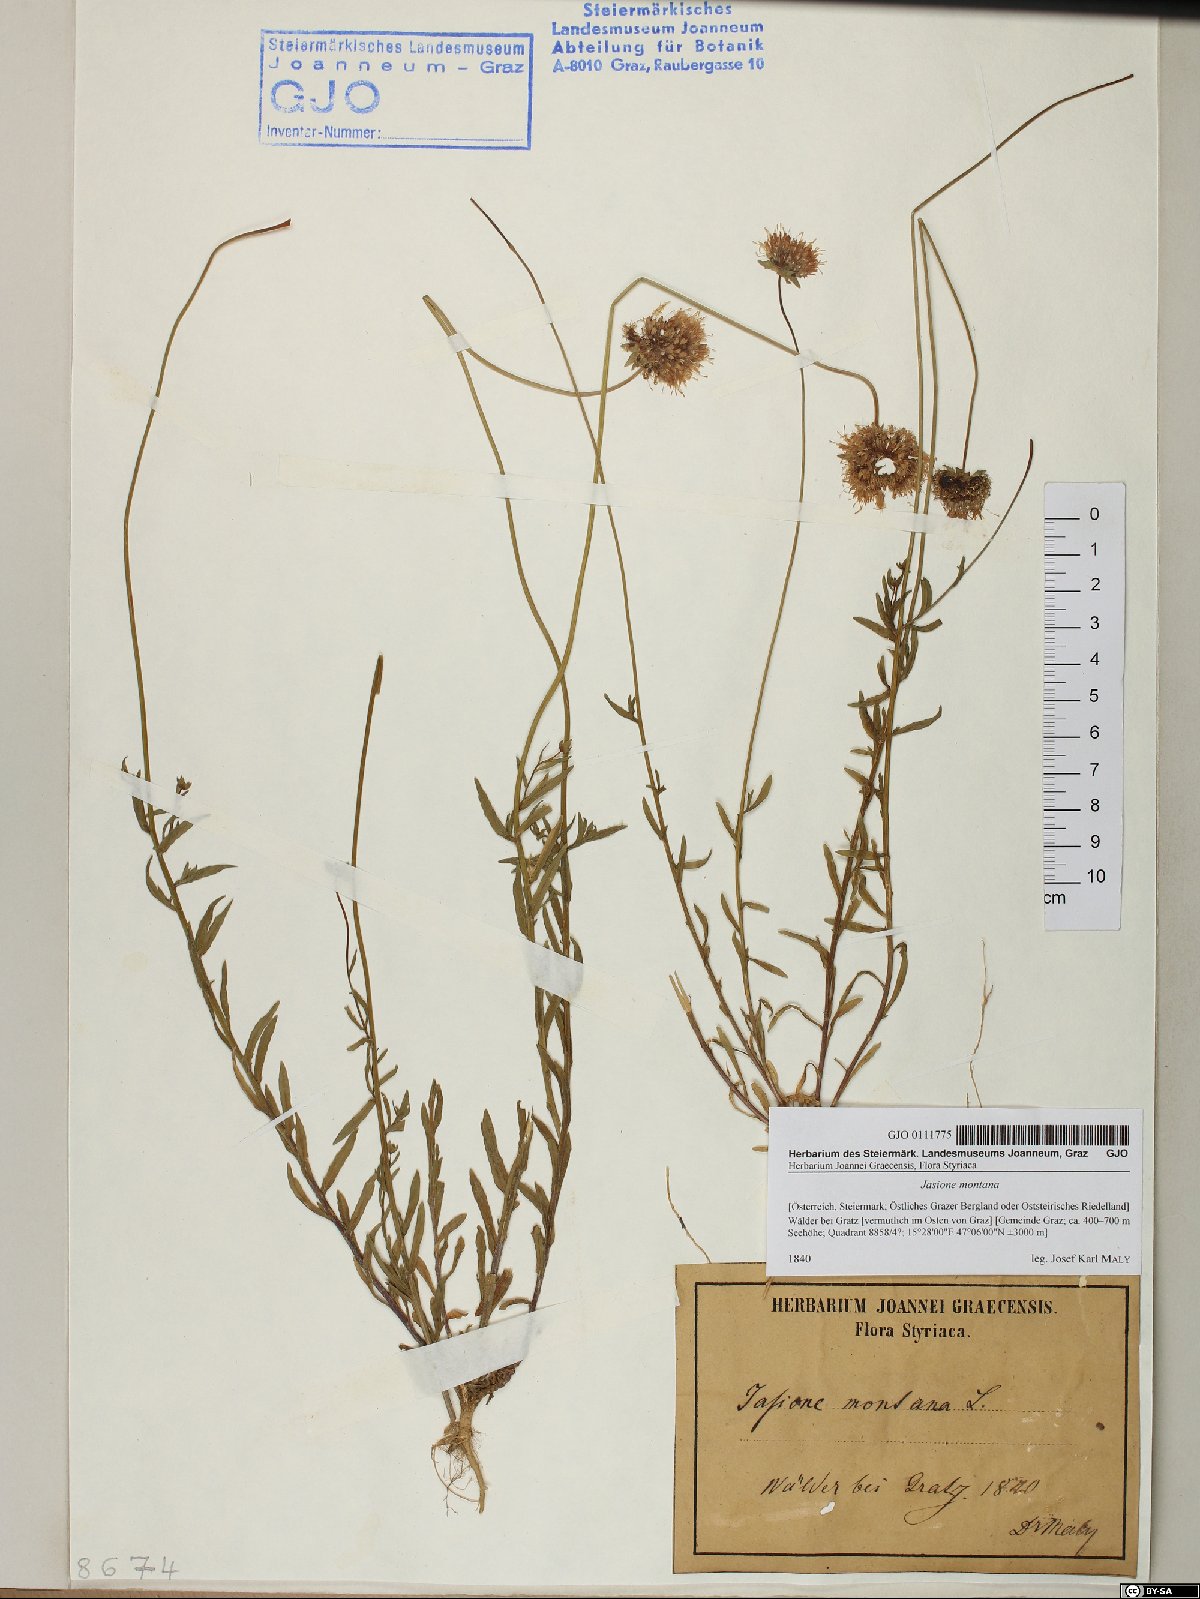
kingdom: Plantae
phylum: Tracheophyta
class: Magnoliopsida
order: Asterales
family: Campanulaceae
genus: Jasione
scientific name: Jasione montana
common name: Sheep's-bit
